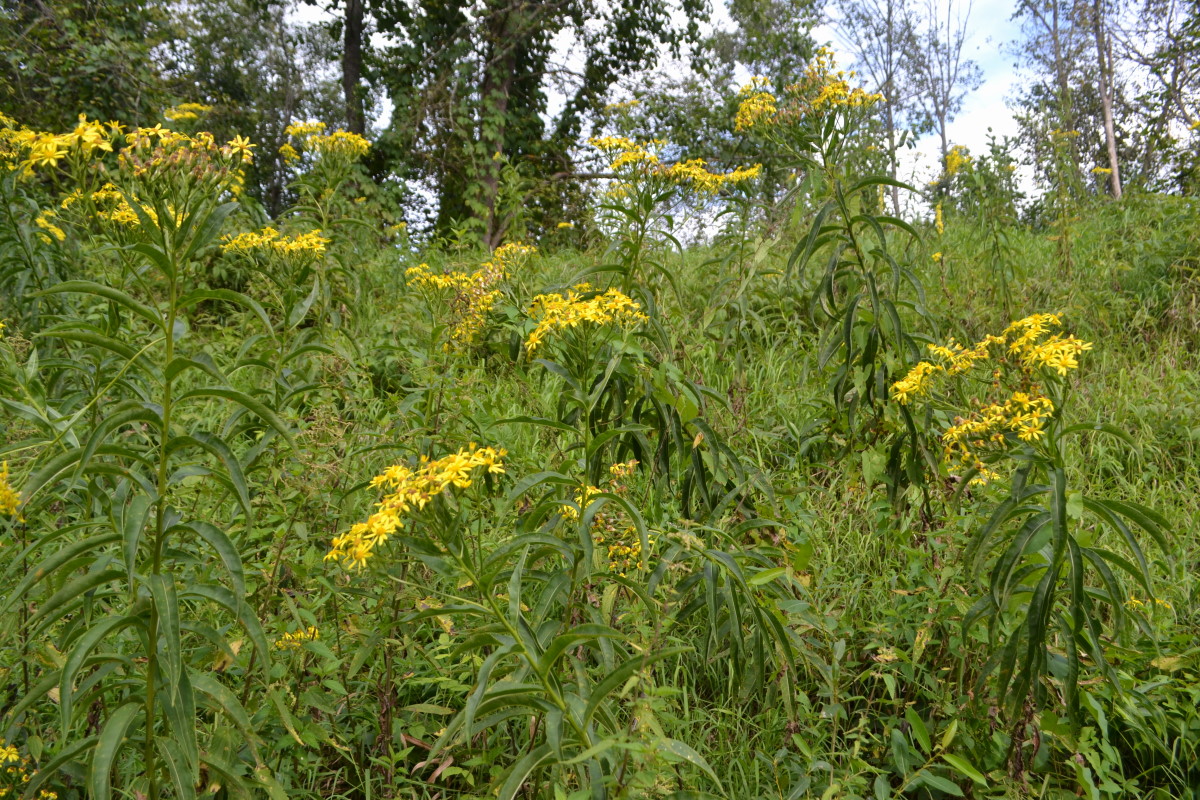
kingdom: Plantae
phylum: Tracheophyta
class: Magnoliopsida
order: Asterales
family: Asteraceae
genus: Senecio
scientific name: Senecio sarracenicus
